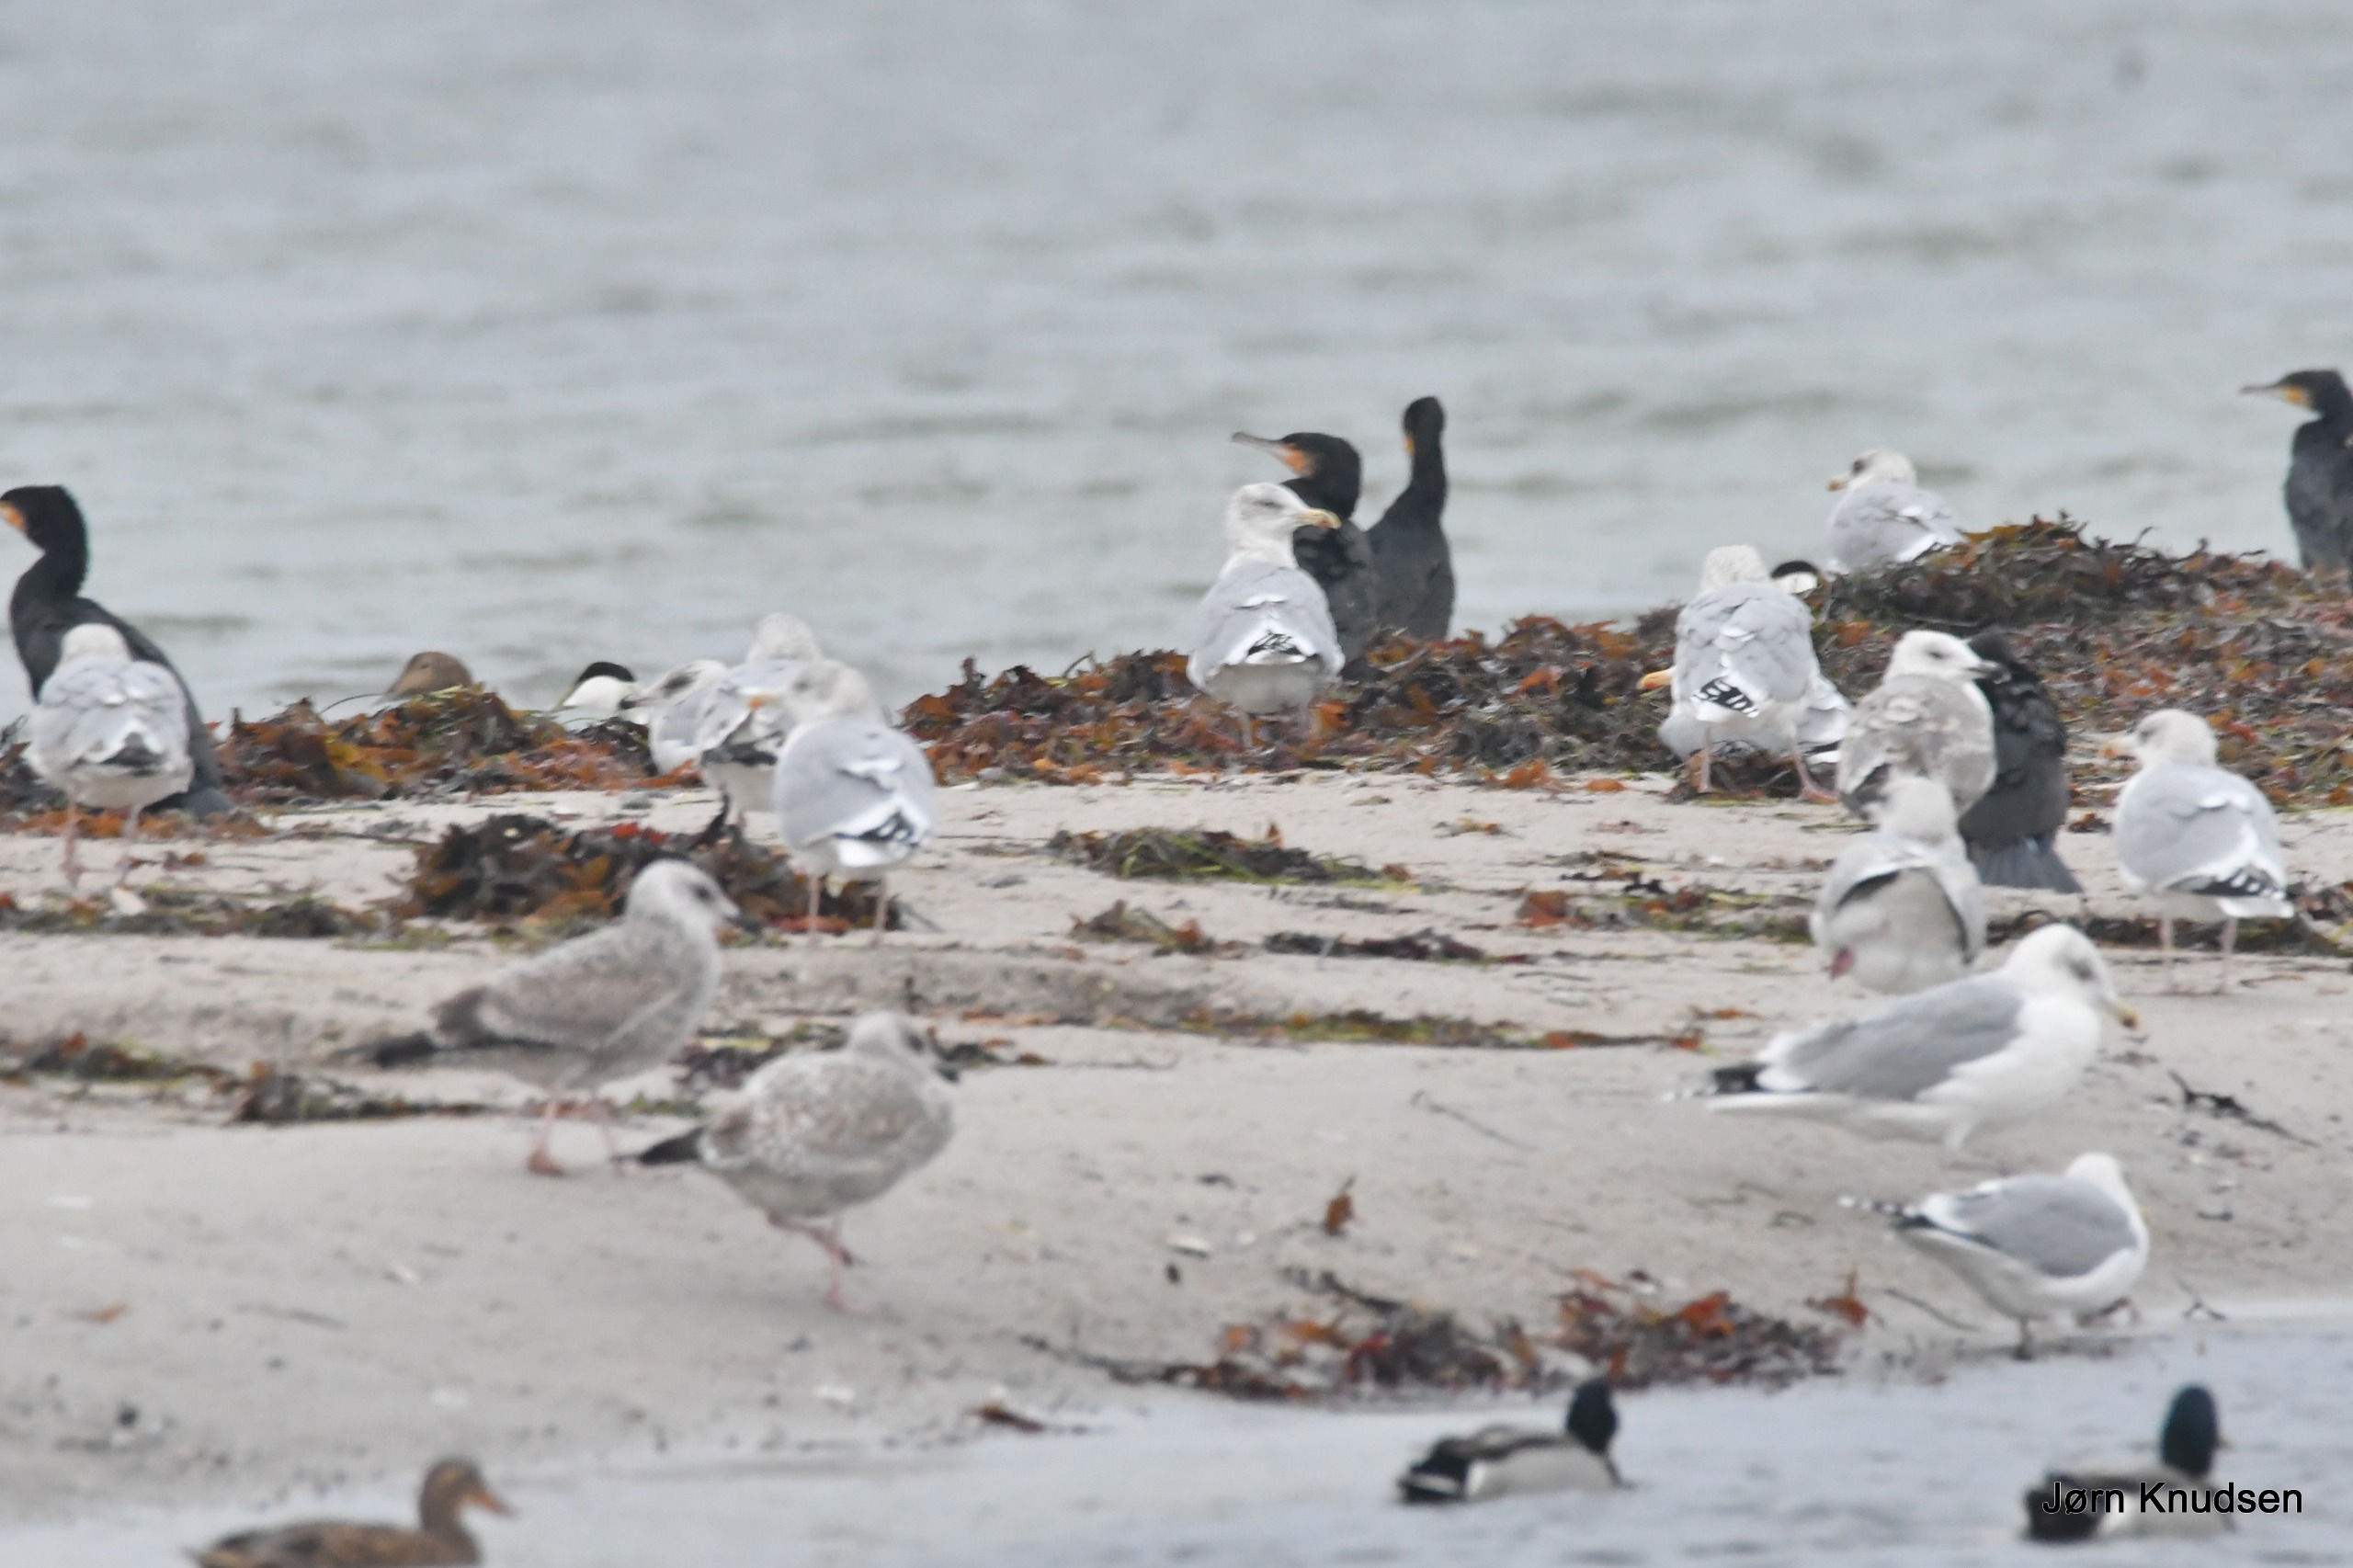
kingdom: Animalia
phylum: Chordata
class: Aves
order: Charadriiformes
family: Laridae
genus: Larus
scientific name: Larus argentatus
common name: Sølvmåge
